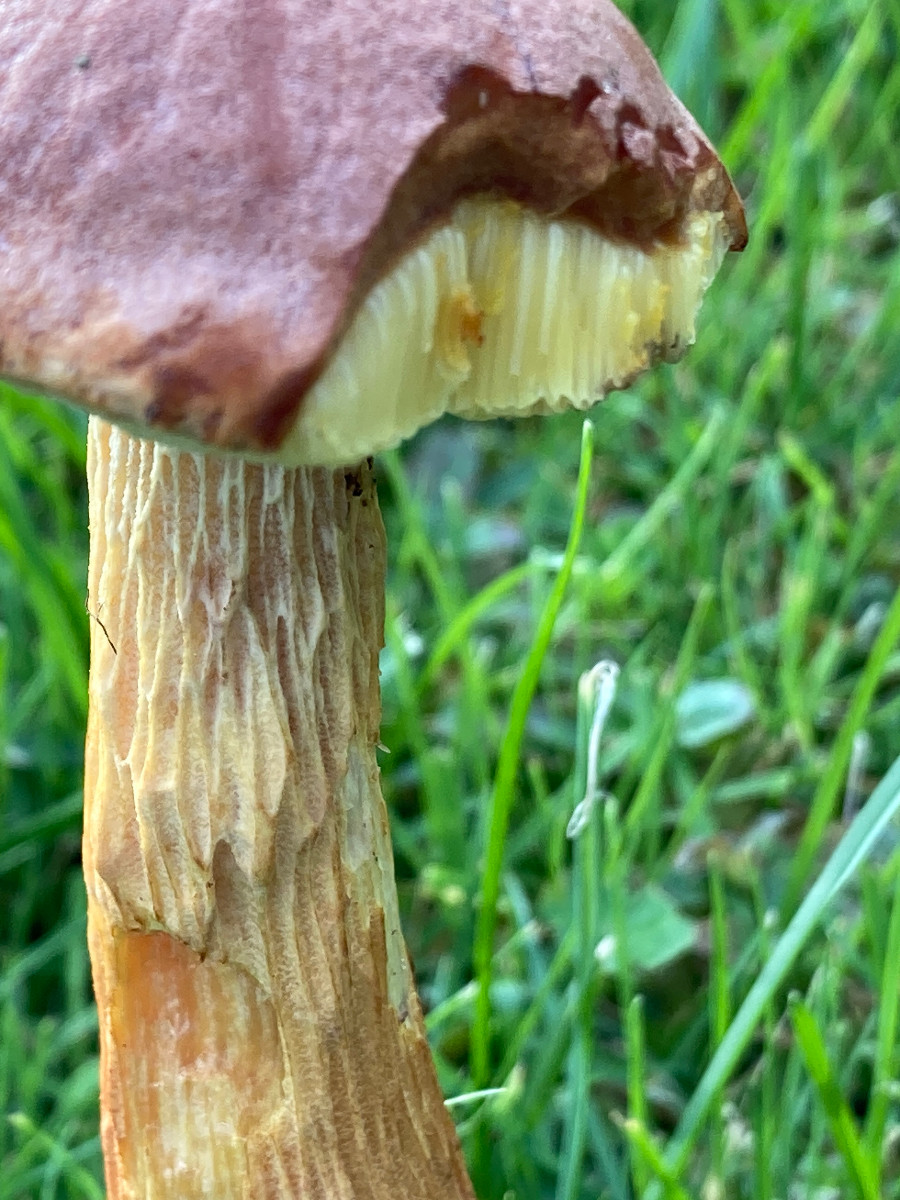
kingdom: Fungi
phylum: Basidiomycota
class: Agaricomycetes
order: Boletales
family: Boletaceae
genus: Aureoboletus
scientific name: Aureoboletus projectellus
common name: ribbestokket rørhat
